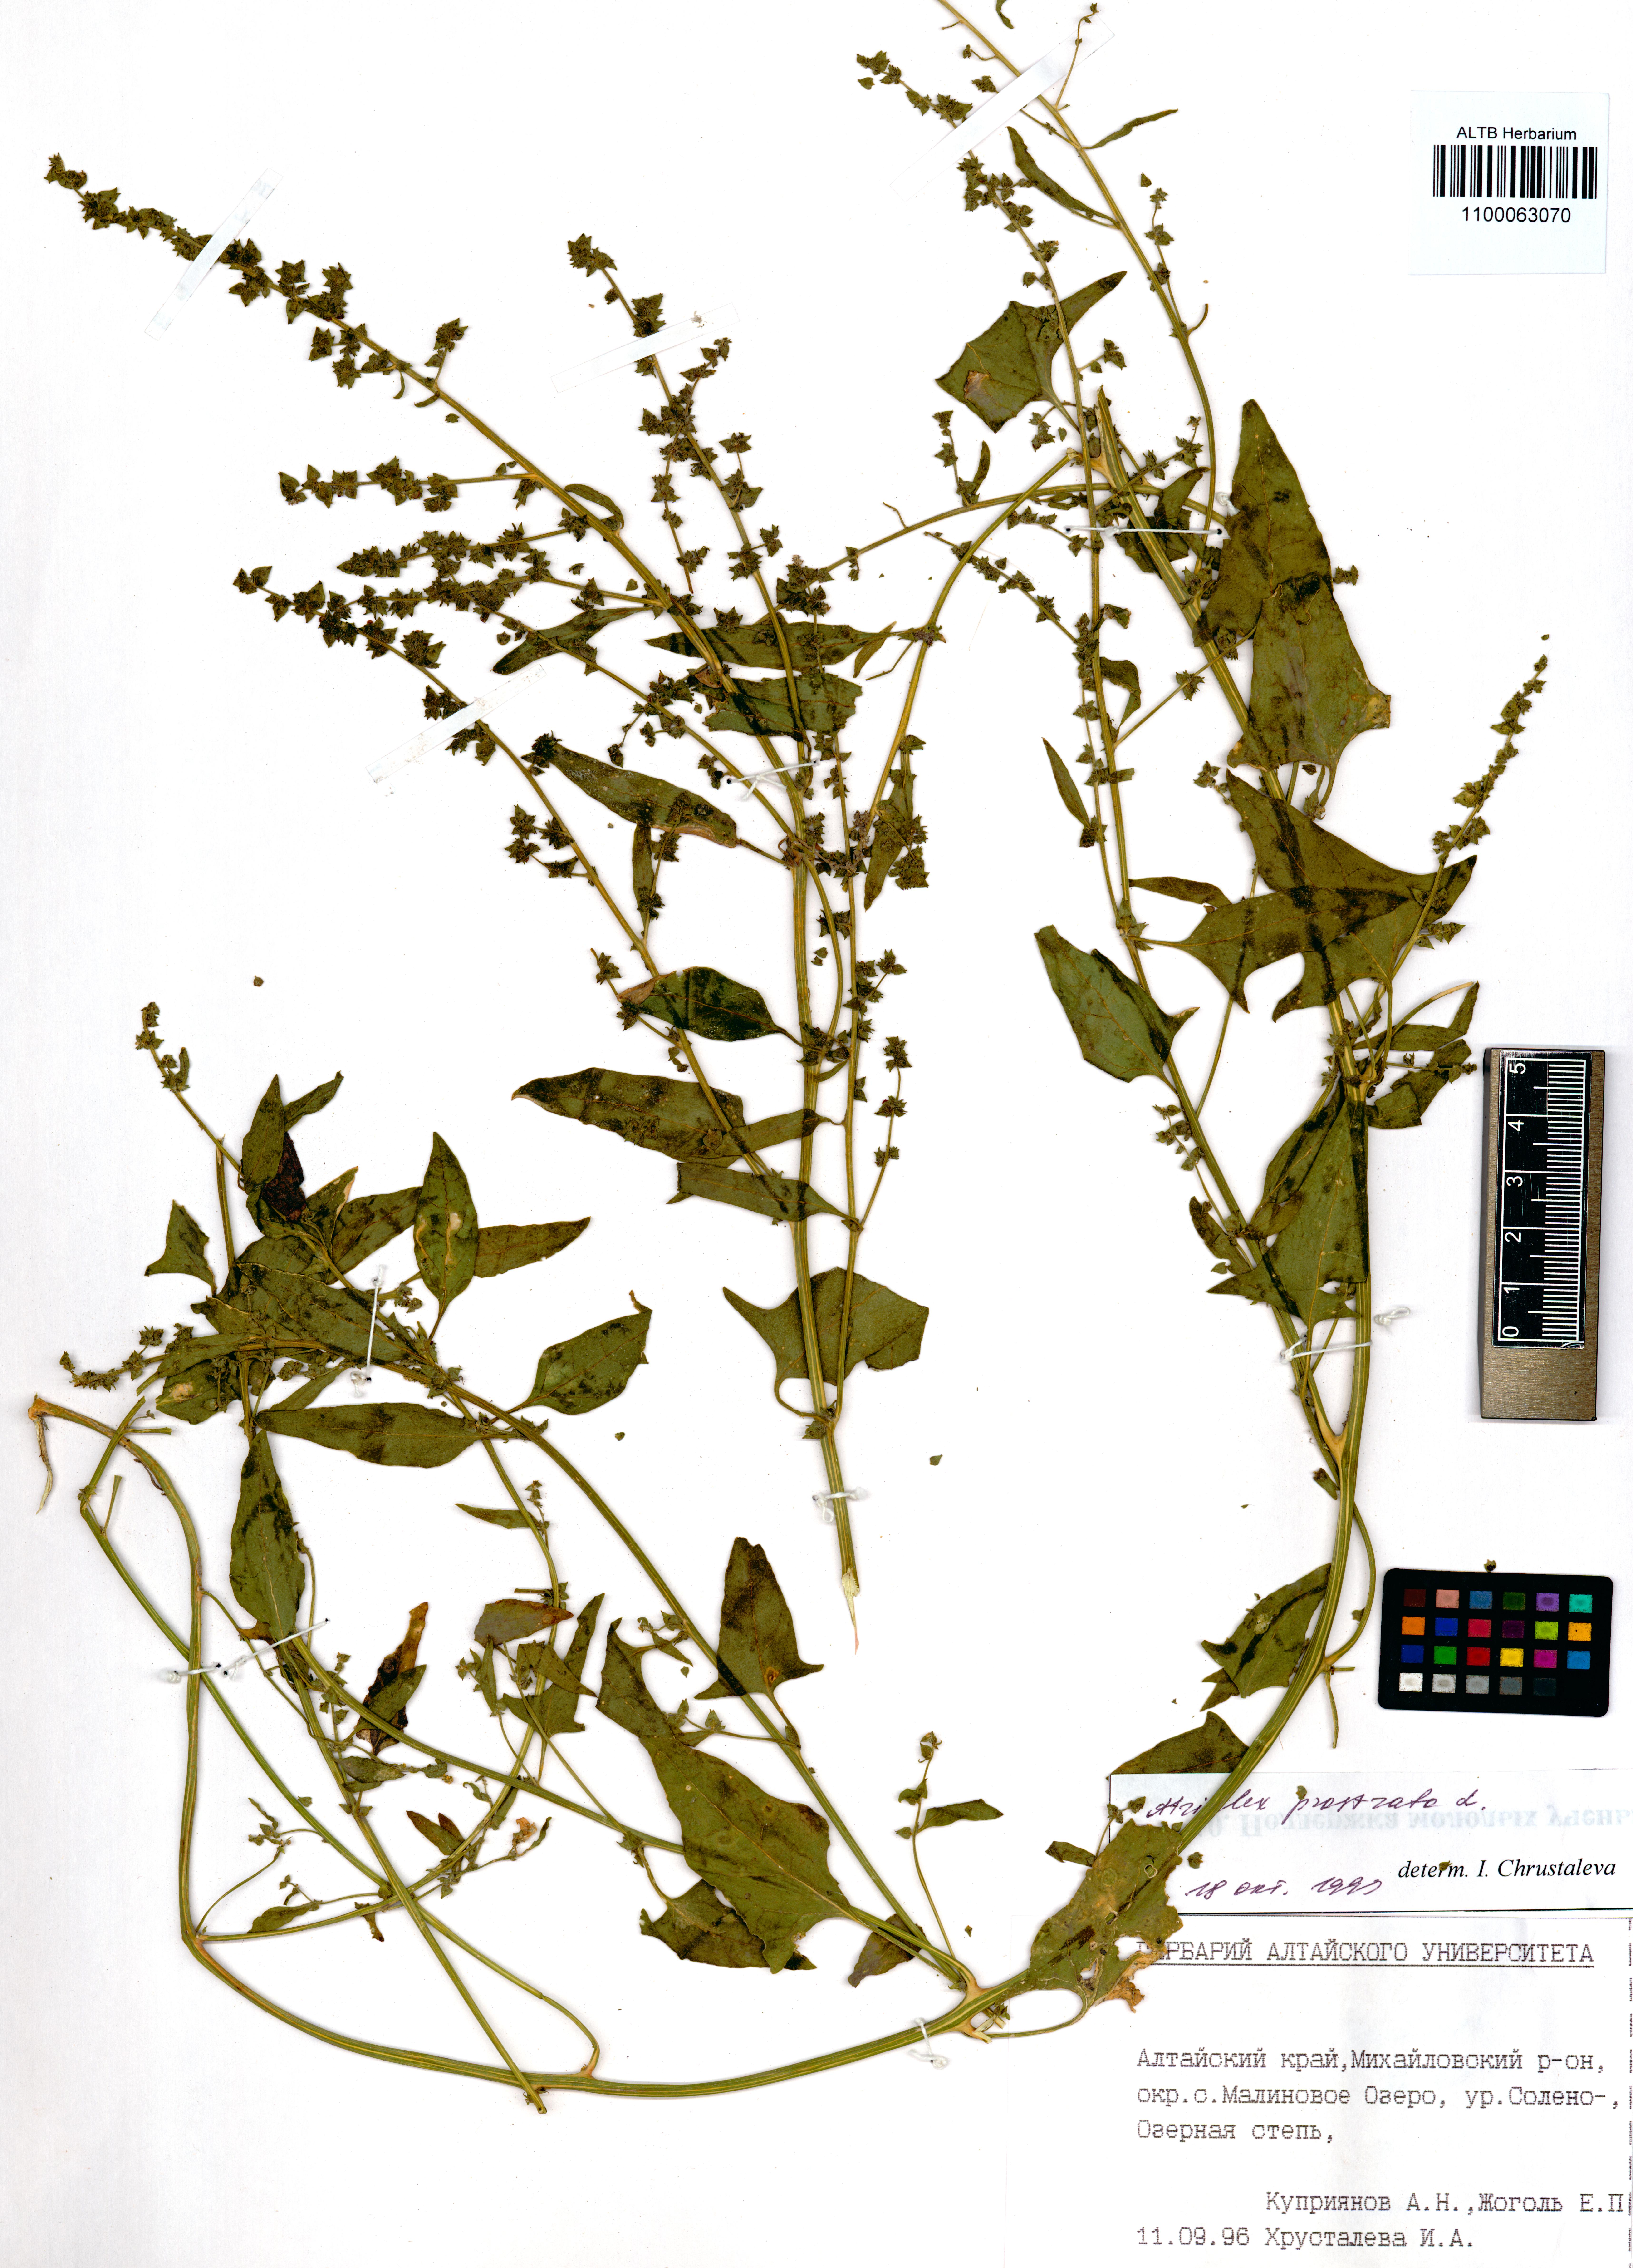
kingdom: Plantae
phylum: Tracheophyta
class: Magnoliopsida
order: Caryophyllales
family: Amaranthaceae
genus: Atriplex
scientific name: Atriplex prostrata
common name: Spear-leaved orache
